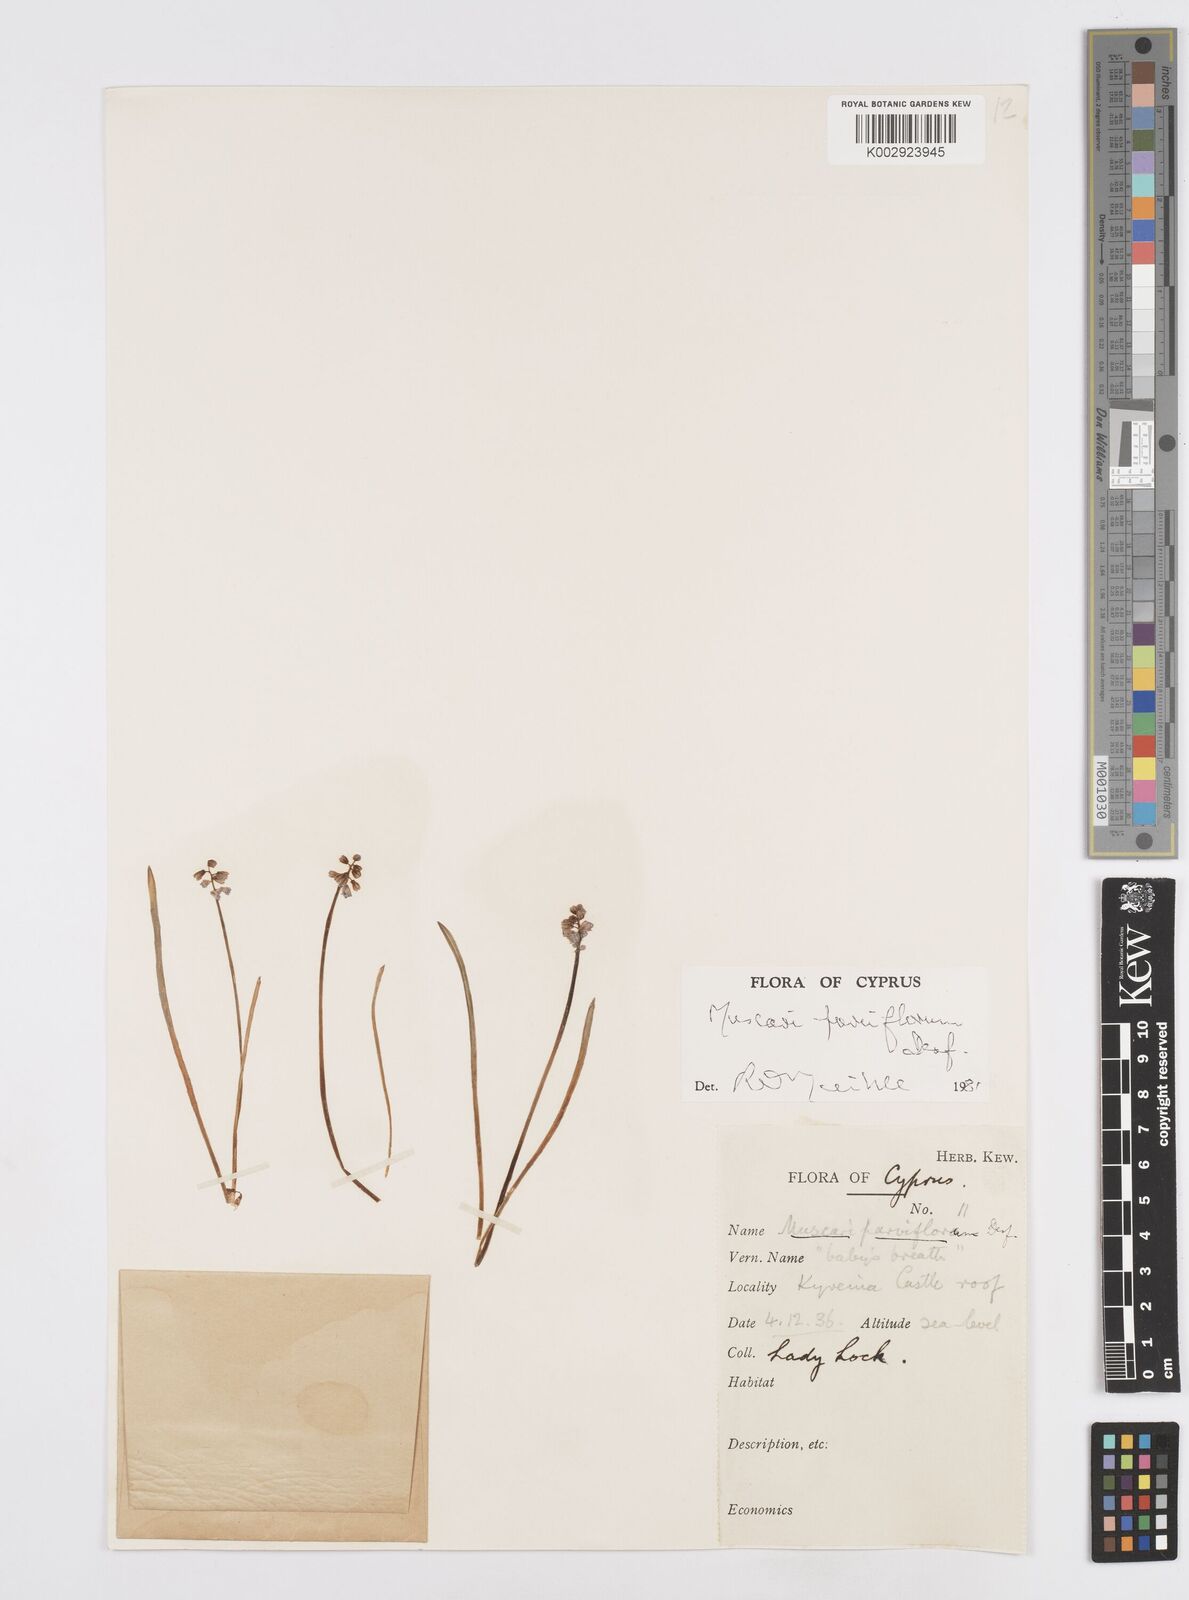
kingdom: Plantae
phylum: Tracheophyta
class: Liliopsida
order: Asparagales
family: Asparagaceae
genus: Muscari
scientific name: Muscari parviflorum
